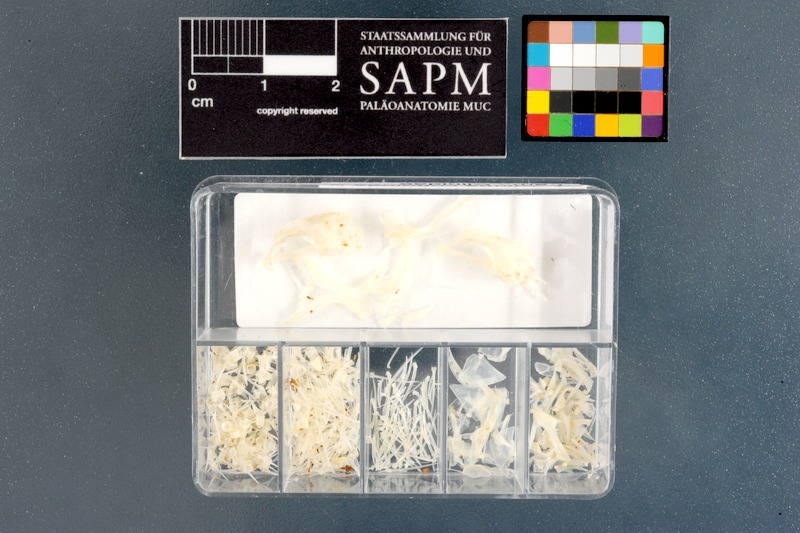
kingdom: Animalia
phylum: Chordata
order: Perciformes
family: Clinidae
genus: Clinus
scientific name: Clinus cottoides
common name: Bluntnose klipfish
